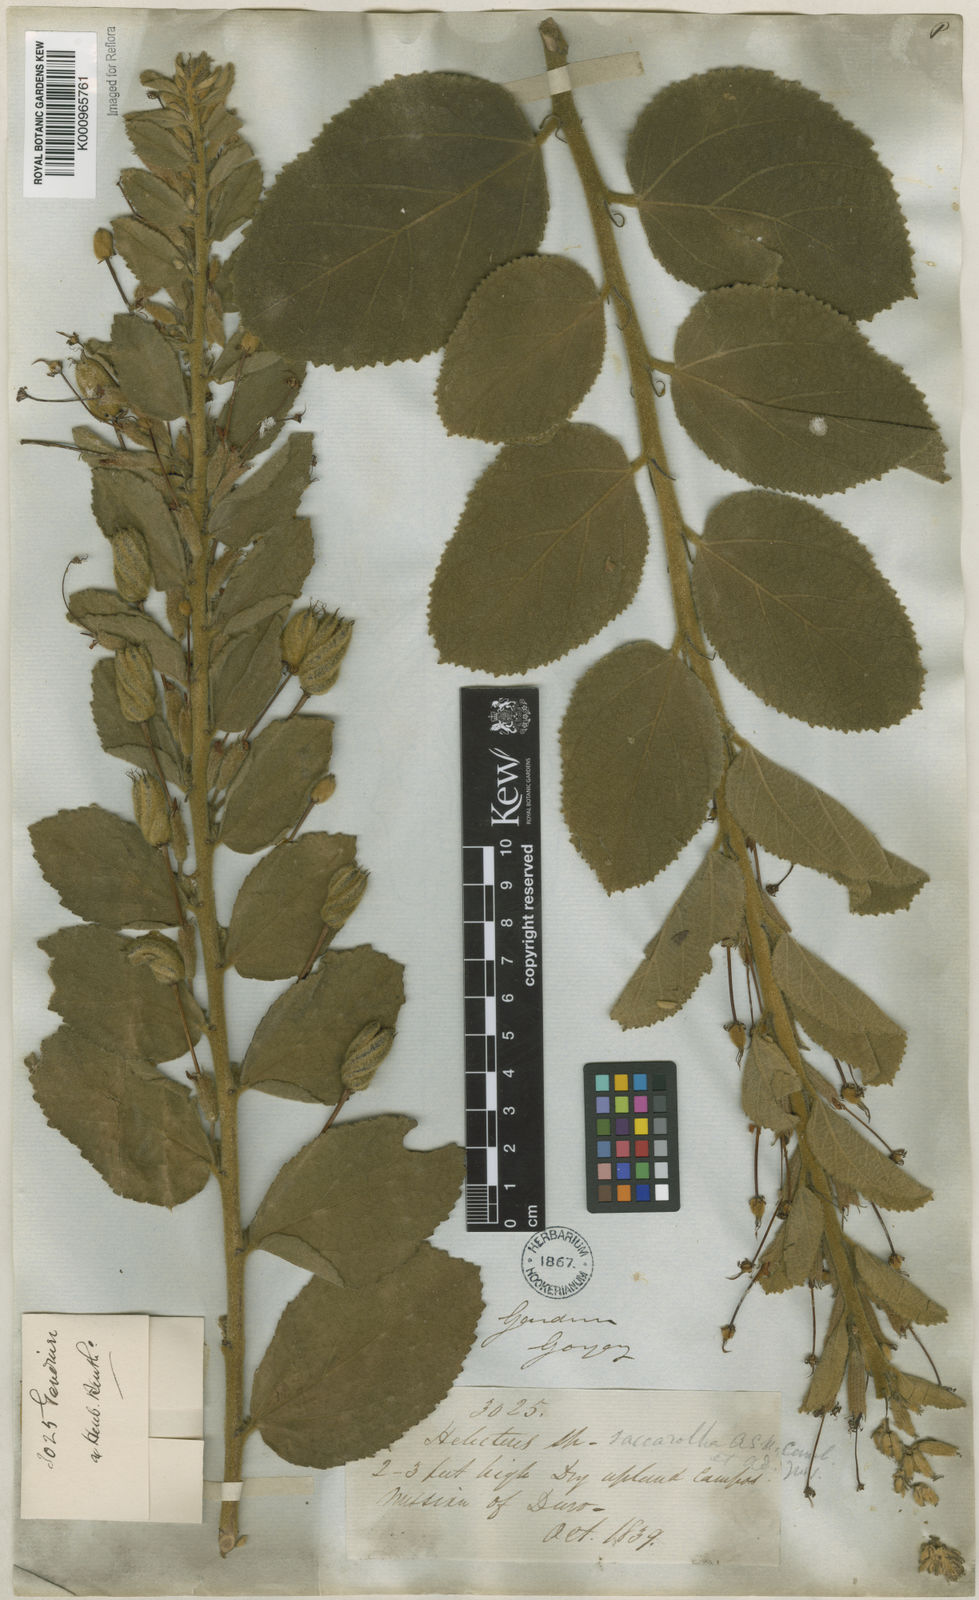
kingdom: Plantae
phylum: Tracheophyta
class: Magnoliopsida
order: Malvales
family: Malvaceae
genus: Helicteres
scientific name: Helicteres
